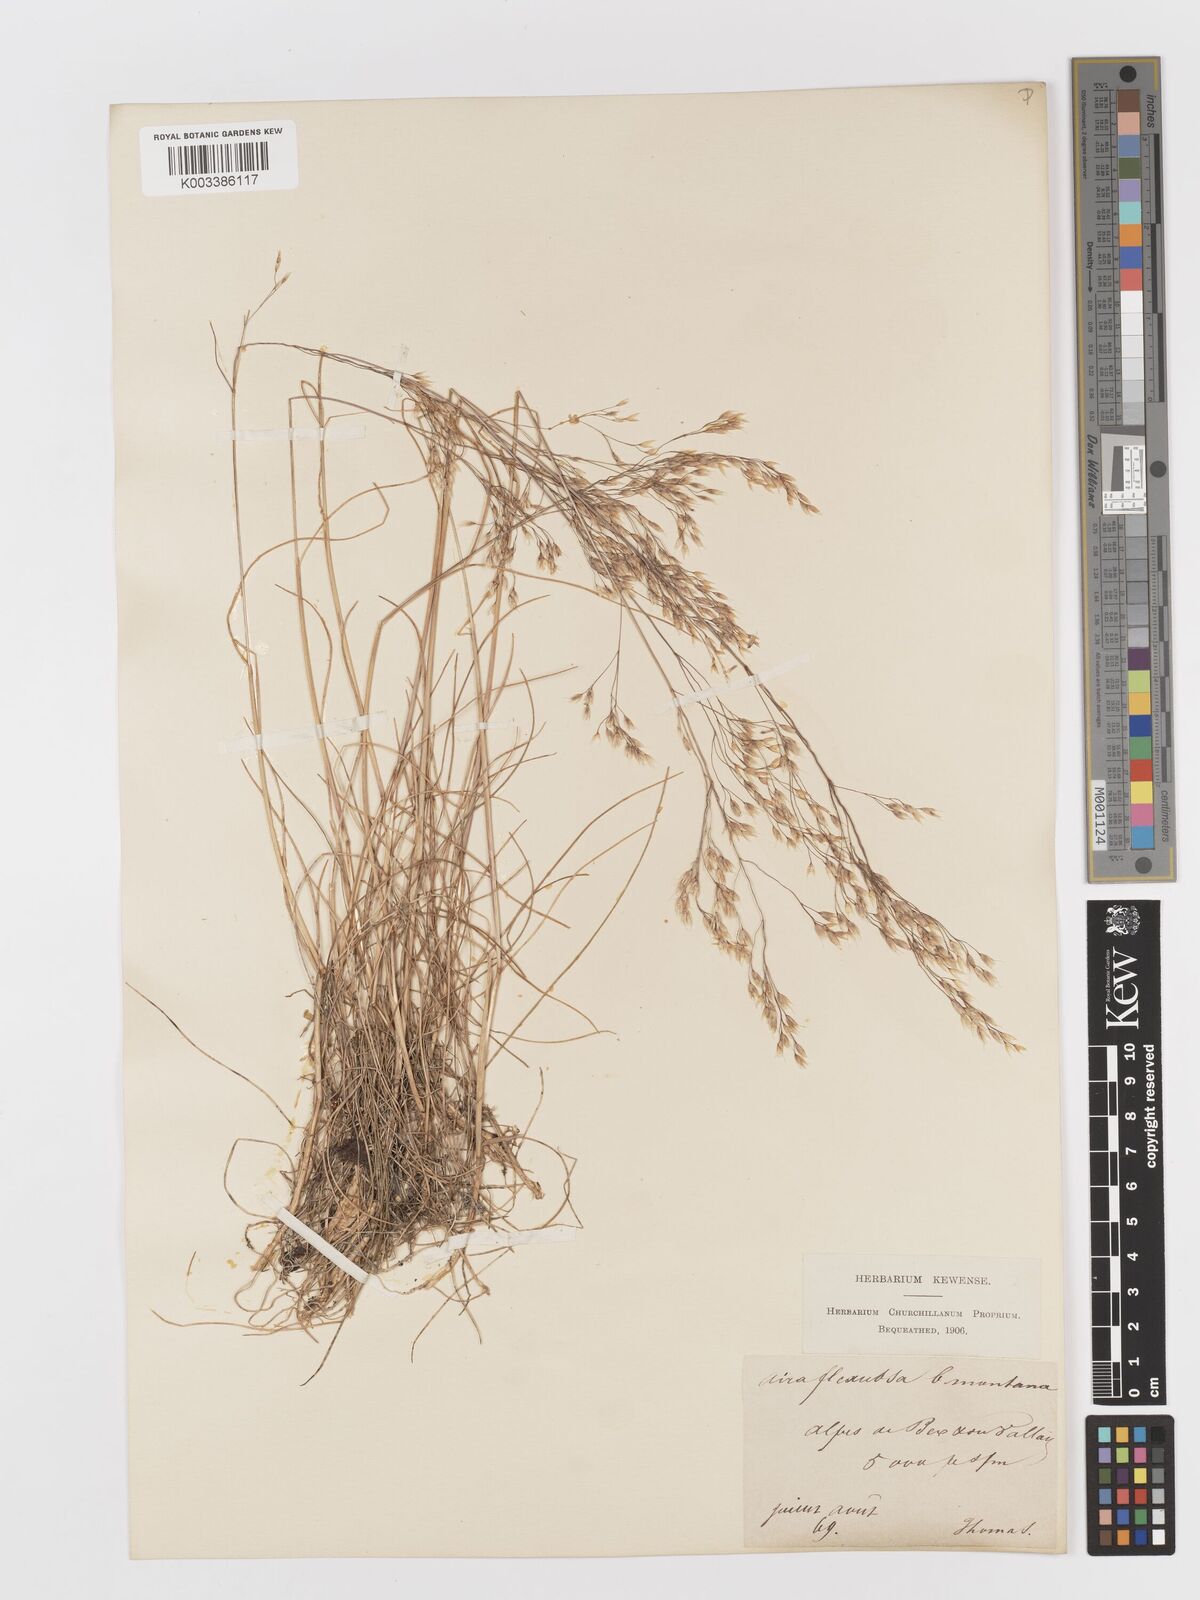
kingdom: Plantae
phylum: Tracheophyta
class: Liliopsida
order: Poales
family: Poaceae
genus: Avenella
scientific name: Avenella flexuosa
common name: Wavy hairgrass
